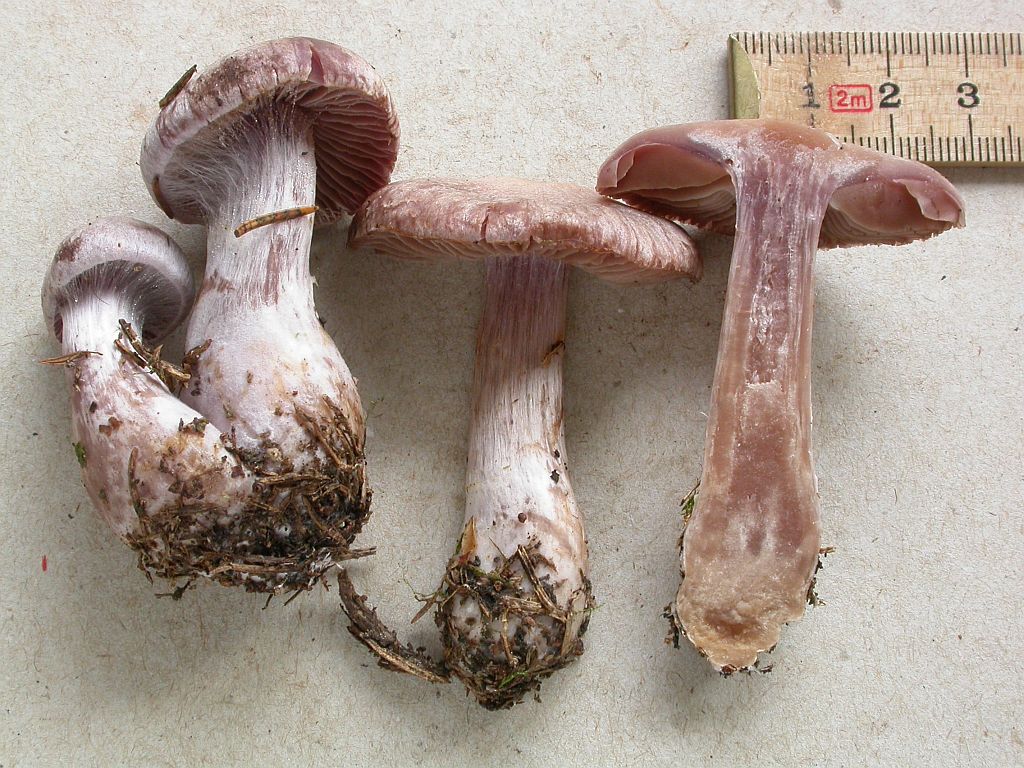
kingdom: Fungi
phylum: Basidiomycota
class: Agaricomycetes
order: Agaricales
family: Cortinariaceae
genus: Cortinarius
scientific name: Cortinarius malachius
